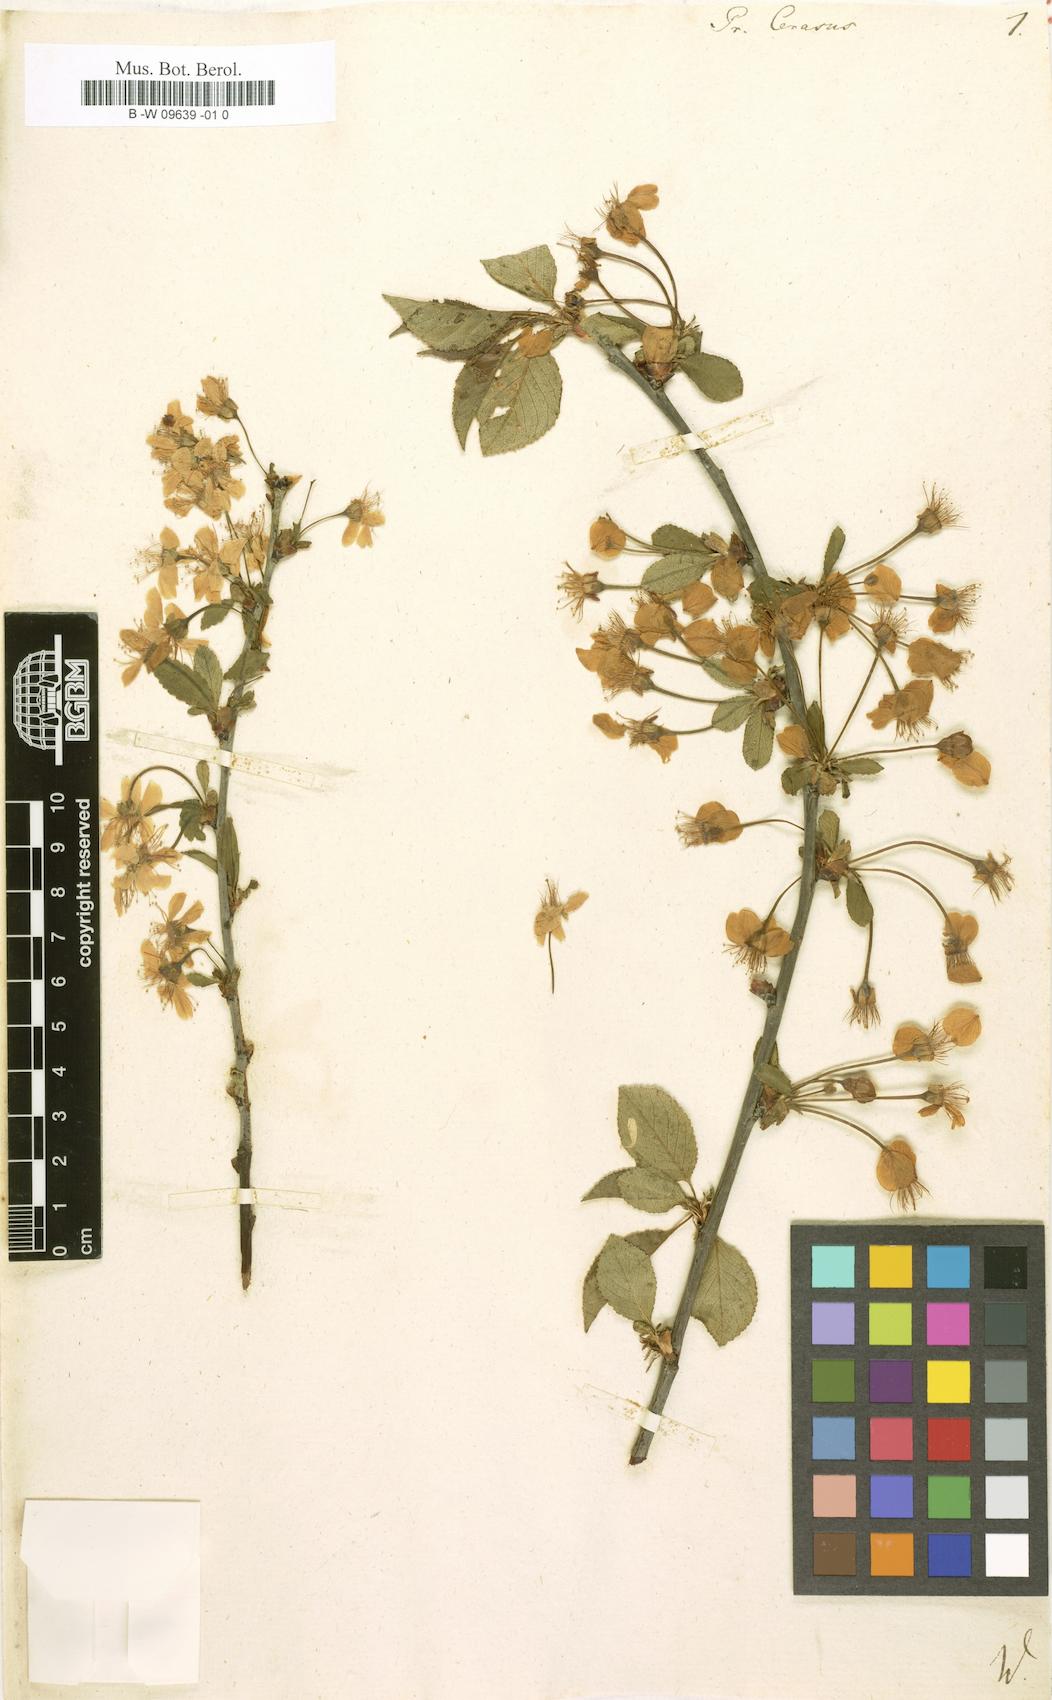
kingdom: Plantae
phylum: Tracheophyta
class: Magnoliopsida
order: Rosales
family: Rosaceae
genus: Prunus
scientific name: Prunus cerasus
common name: Morello cherry
